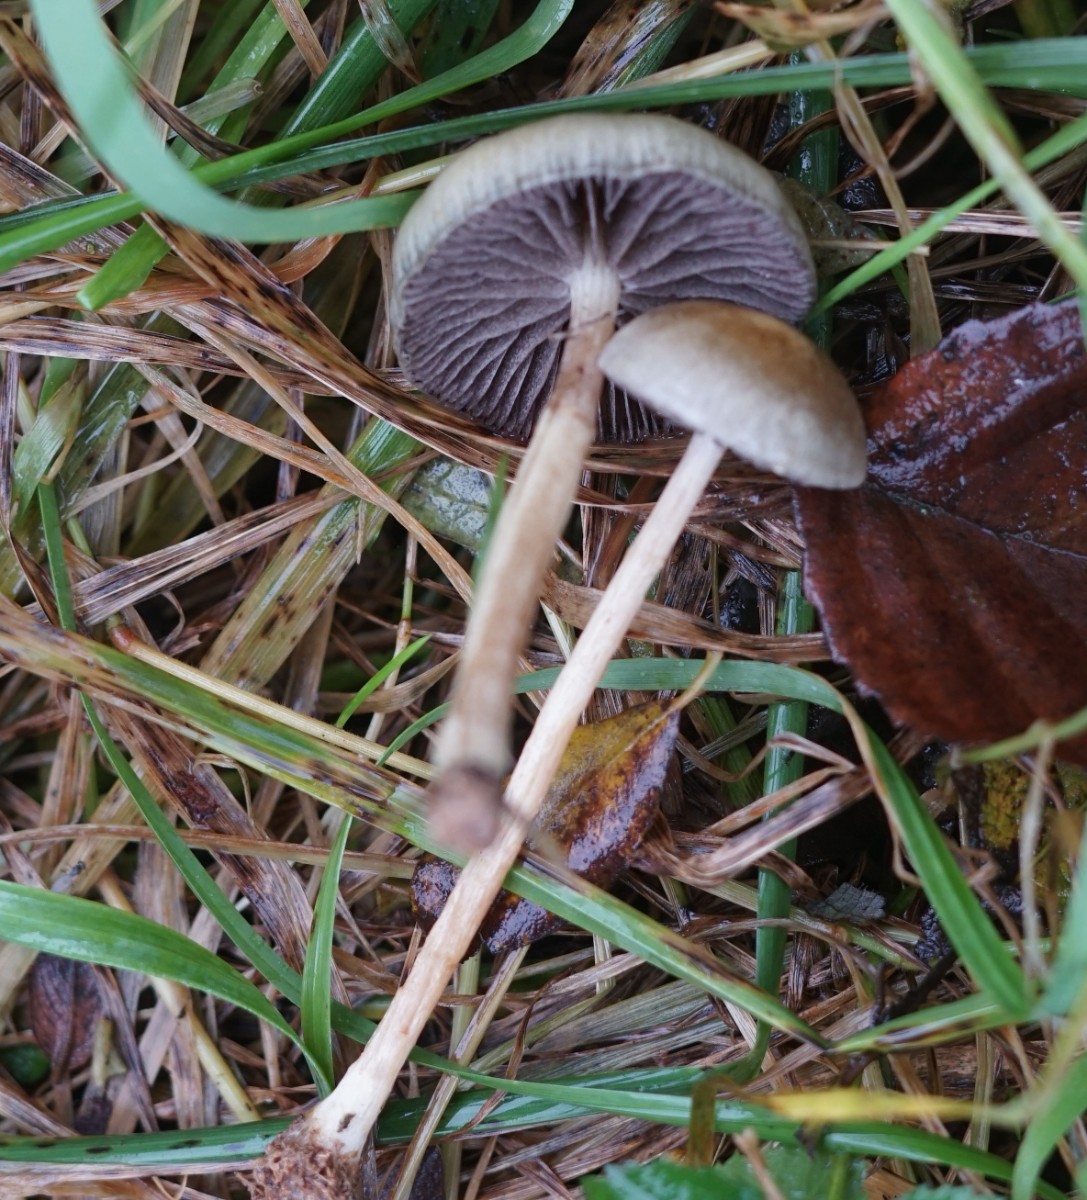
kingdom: Fungi
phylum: Basidiomycota
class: Agaricomycetes
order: Agaricales
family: Strophariaceae
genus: Protostropharia
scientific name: Protostropharia semiglobata
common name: halvkugleformet bredblad
